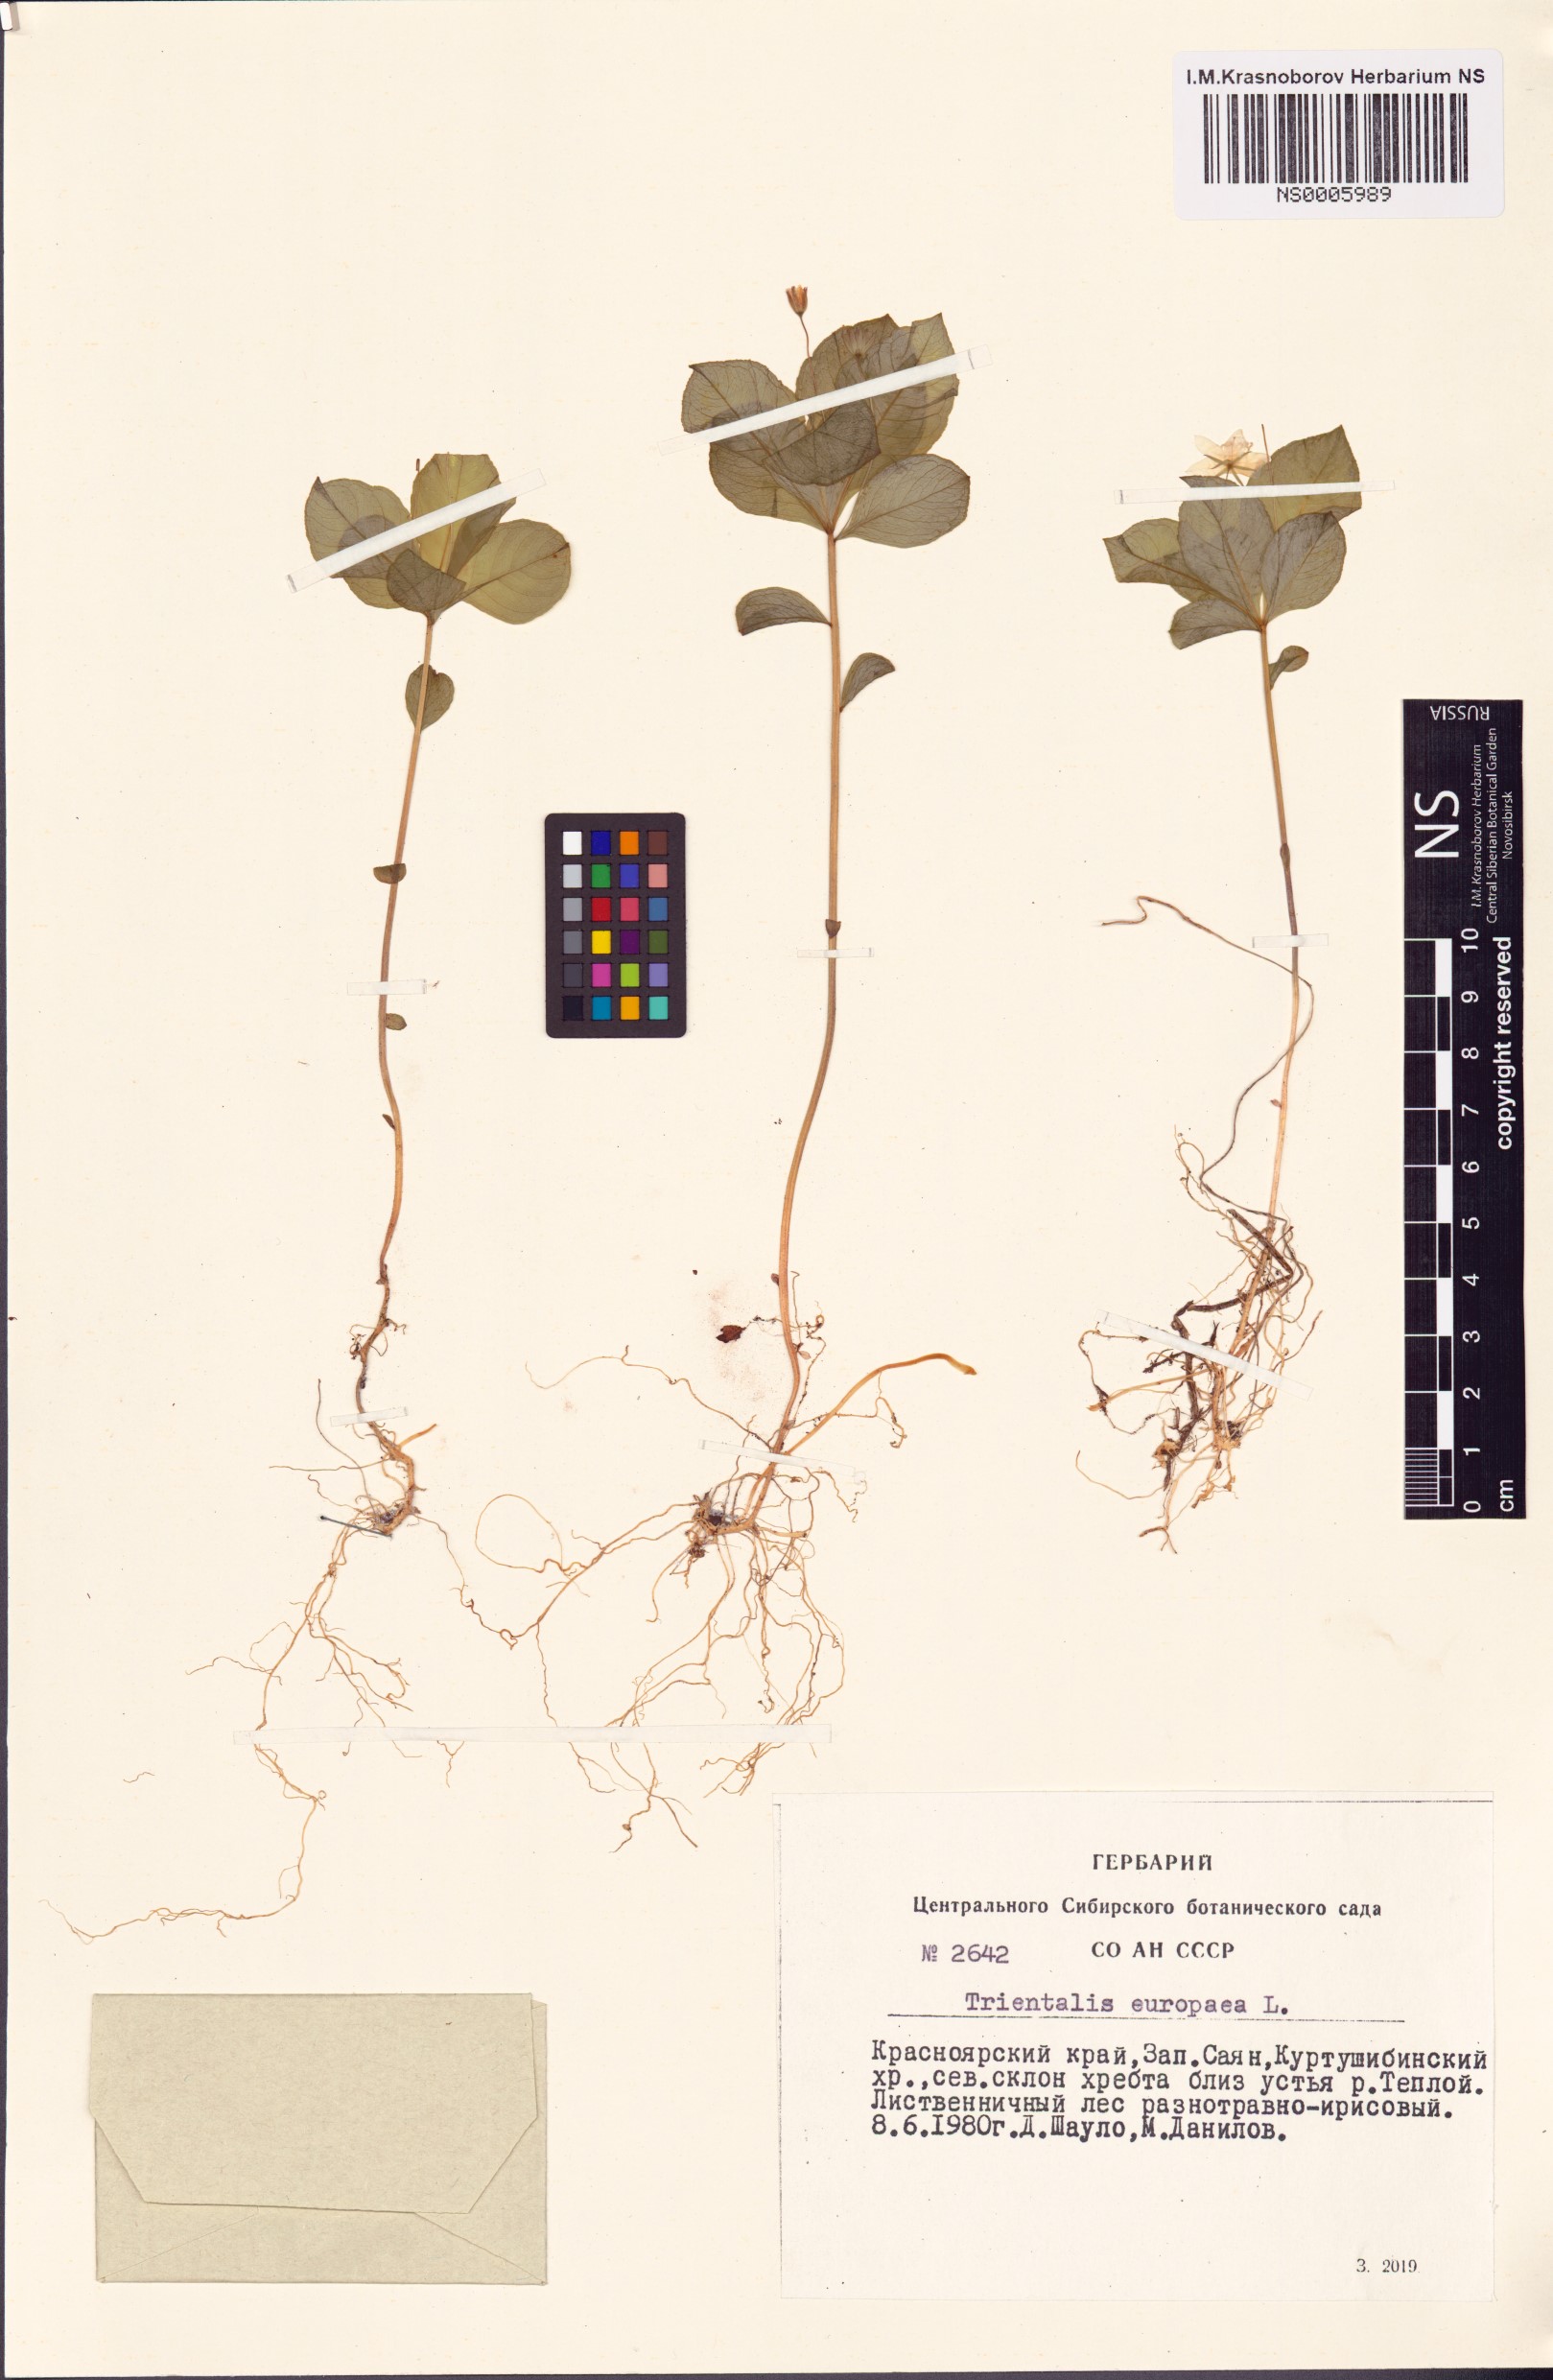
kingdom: Plantae
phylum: Tracheophyta
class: Magnoliopsida
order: Ericales
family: Primulaceae
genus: Lysimachia
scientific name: Lysimachia europaea
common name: Arctic starflower
